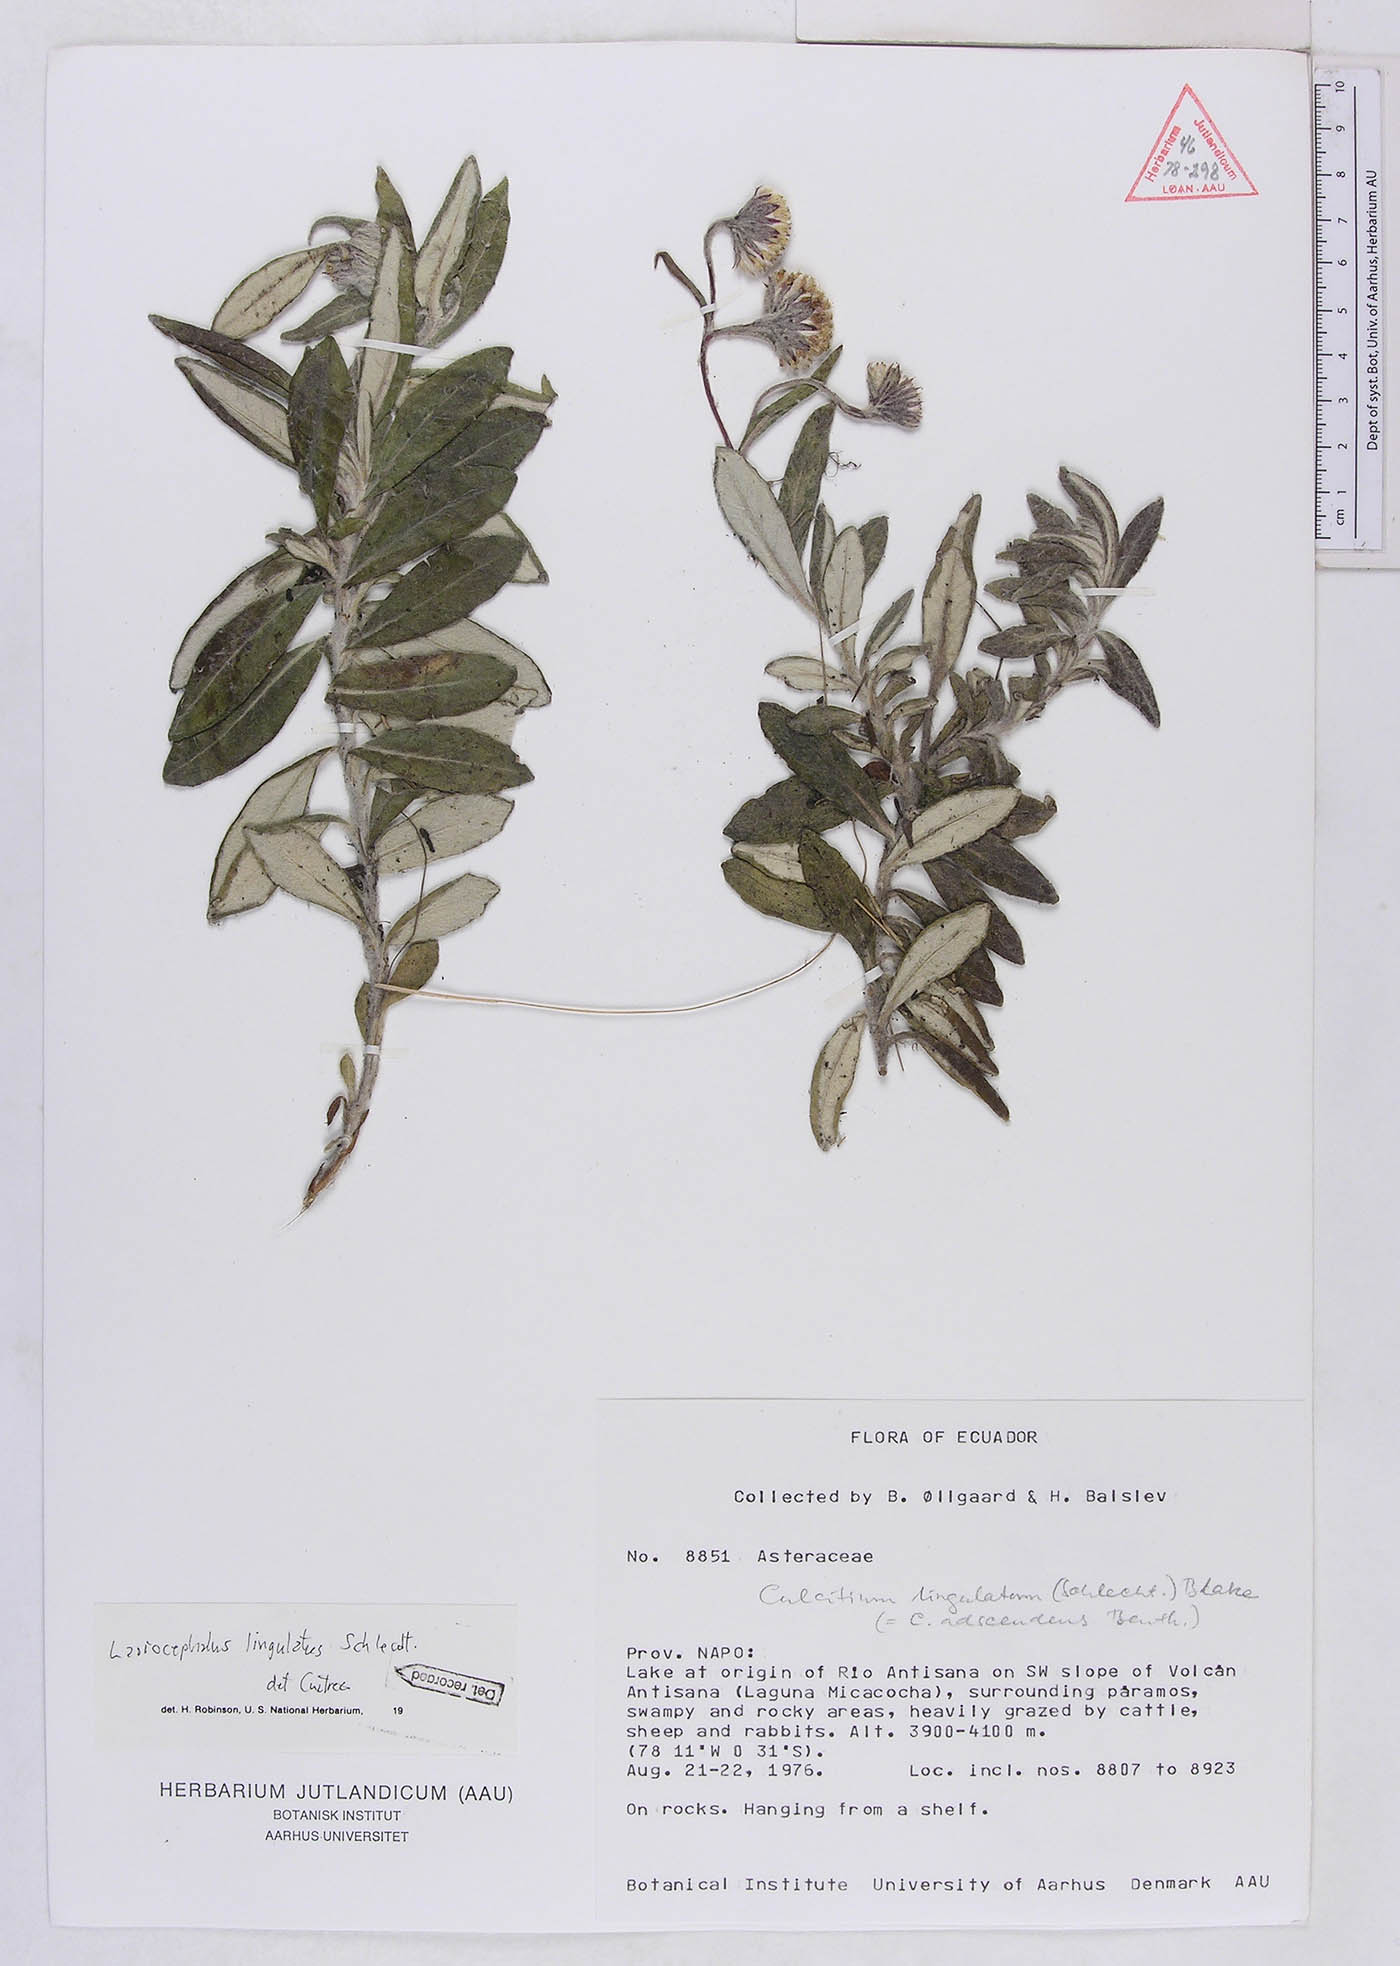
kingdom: Plantae
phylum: Tracheophyta
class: Magnoliopsida
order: Asterales
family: Asteraceae
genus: Lasiocephalus
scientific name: Lasiocephalus lingulatus
